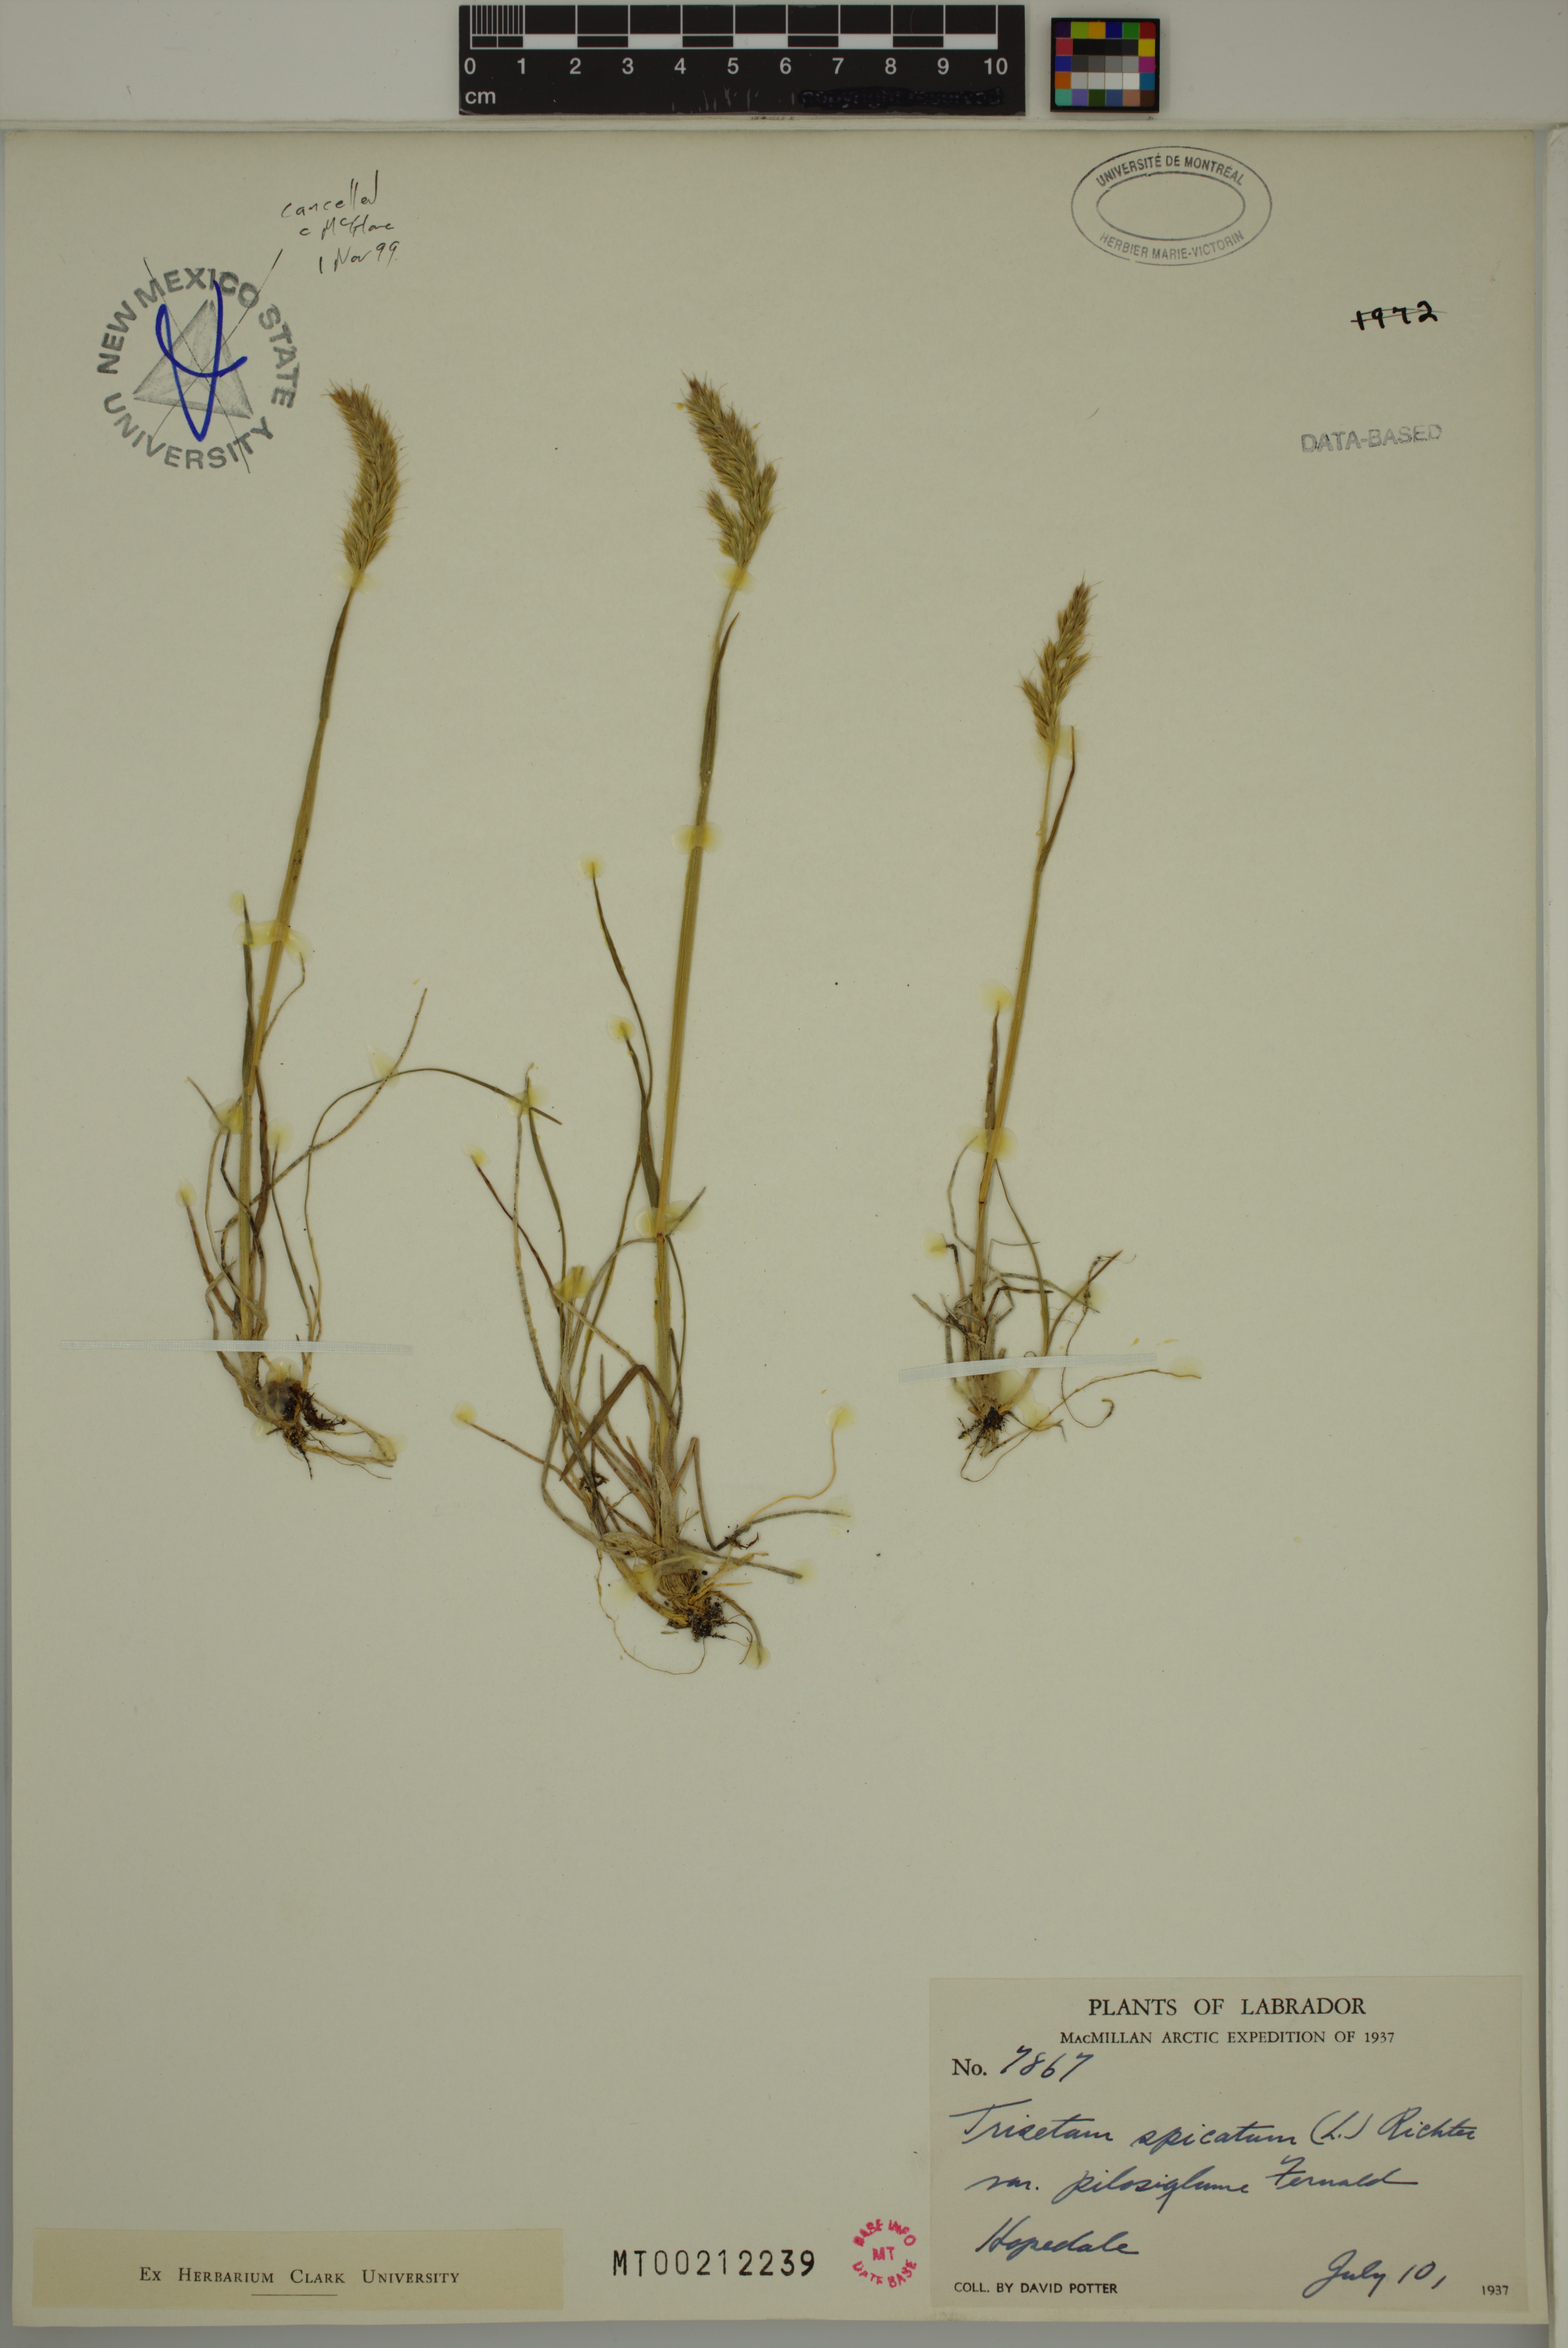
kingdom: Plantae
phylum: Tracheophyta
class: Liliopsida
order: Poales
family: Poaceae
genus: Koeleria
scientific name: Koeleria spicata
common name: Mountain trisetum
